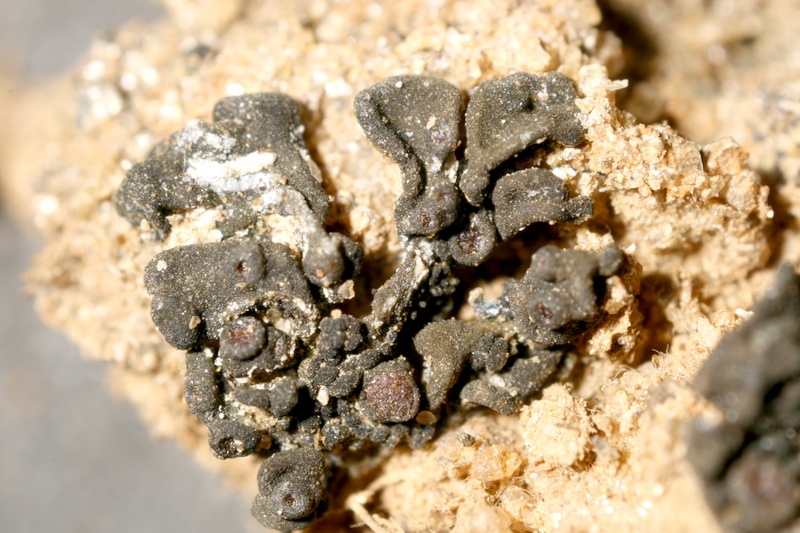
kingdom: Fungi
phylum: Ascomycota
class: Lecanoromycetes
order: Peltigerales
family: Collemataceae
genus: Enchylium
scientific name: Enchylium coccophorum
